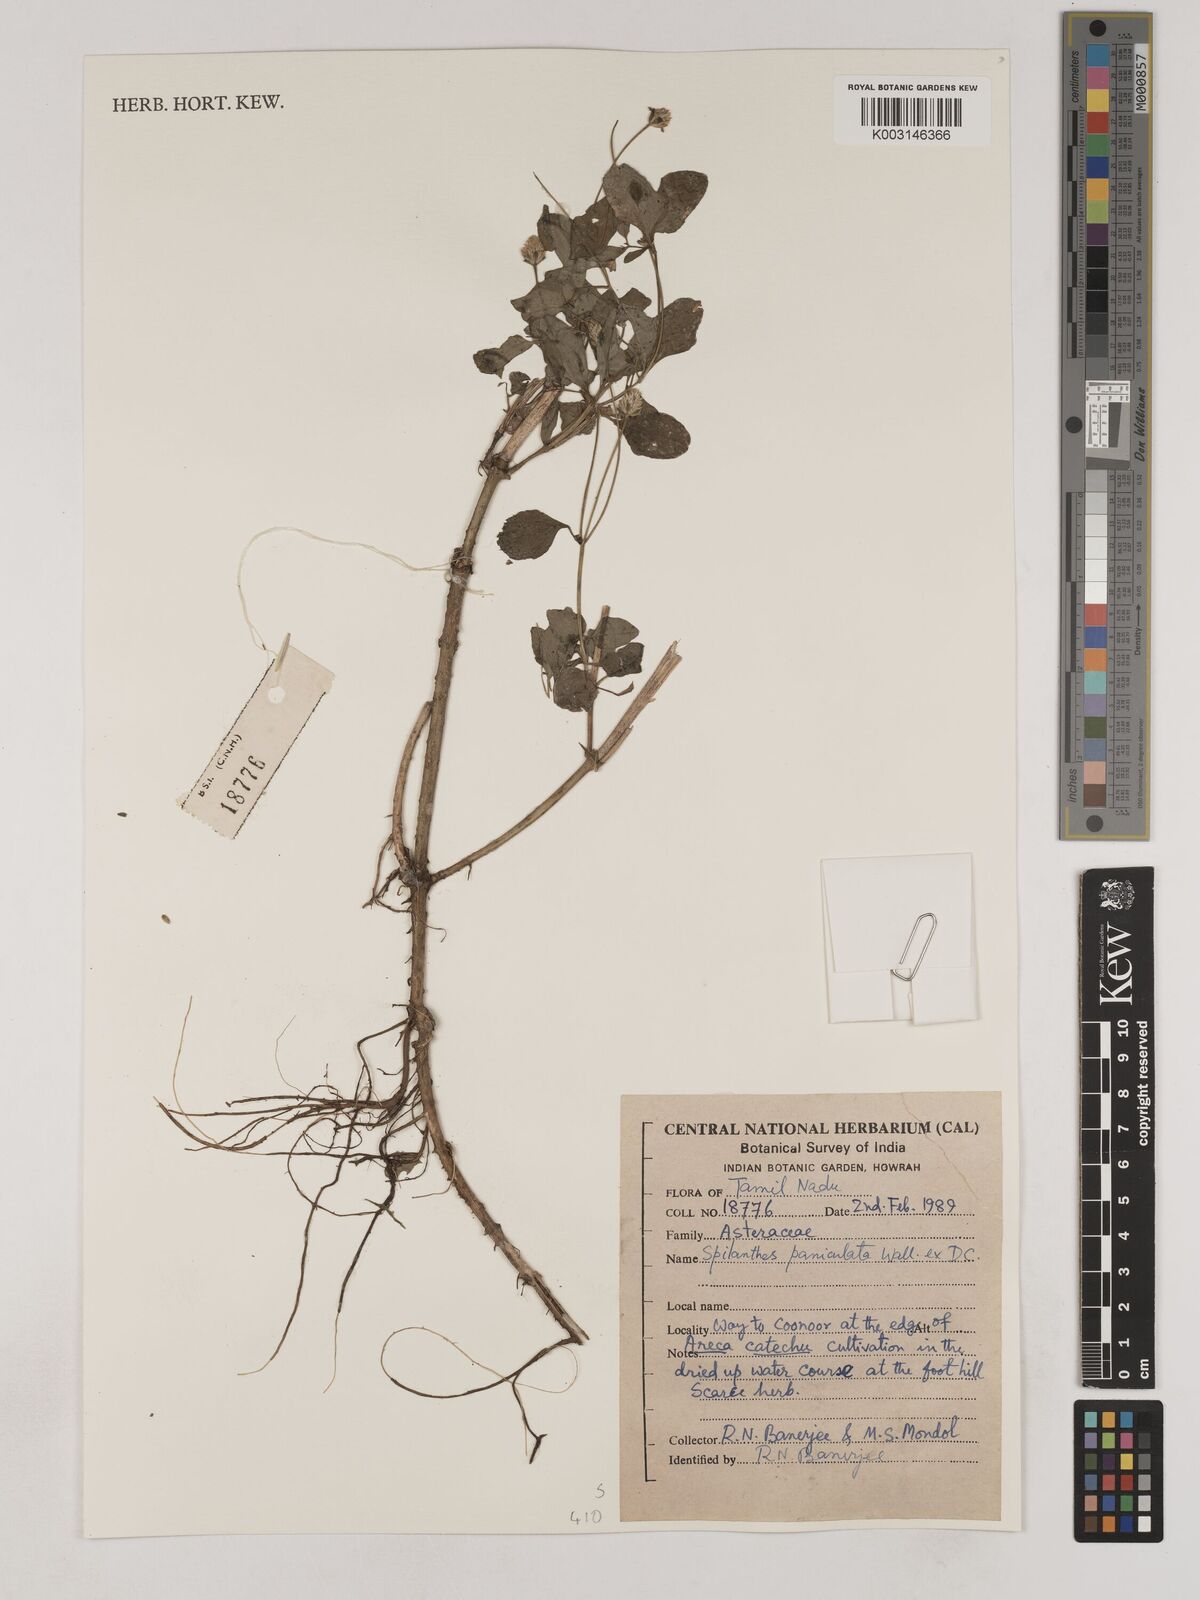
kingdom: Plantae
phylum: Tracheophyta
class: Magnoliopsida
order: Asterales
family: Asteraceae
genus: Acmella
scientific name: Acmella paniculata
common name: Panicled spot flower
